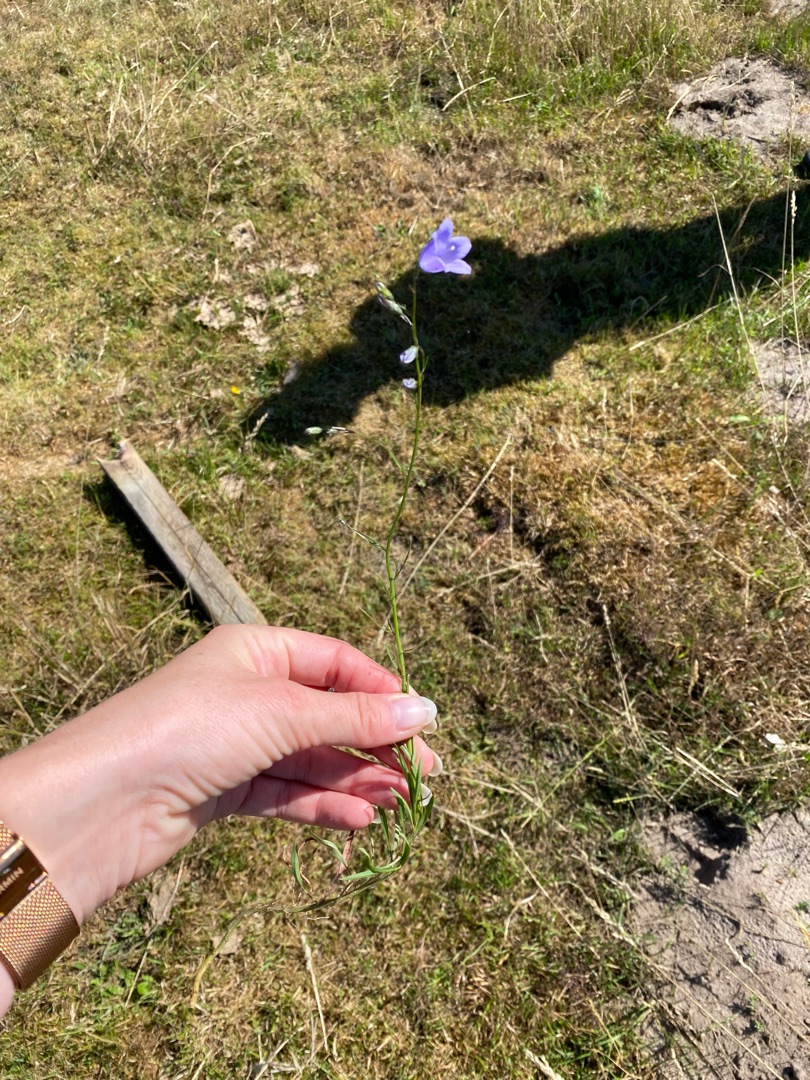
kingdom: Plantae
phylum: Tracheophyta
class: Magnoliopsida
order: Asterales
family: Campanulaceae
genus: Campanula
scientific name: Campanula rotundifolia
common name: Liden klokke
